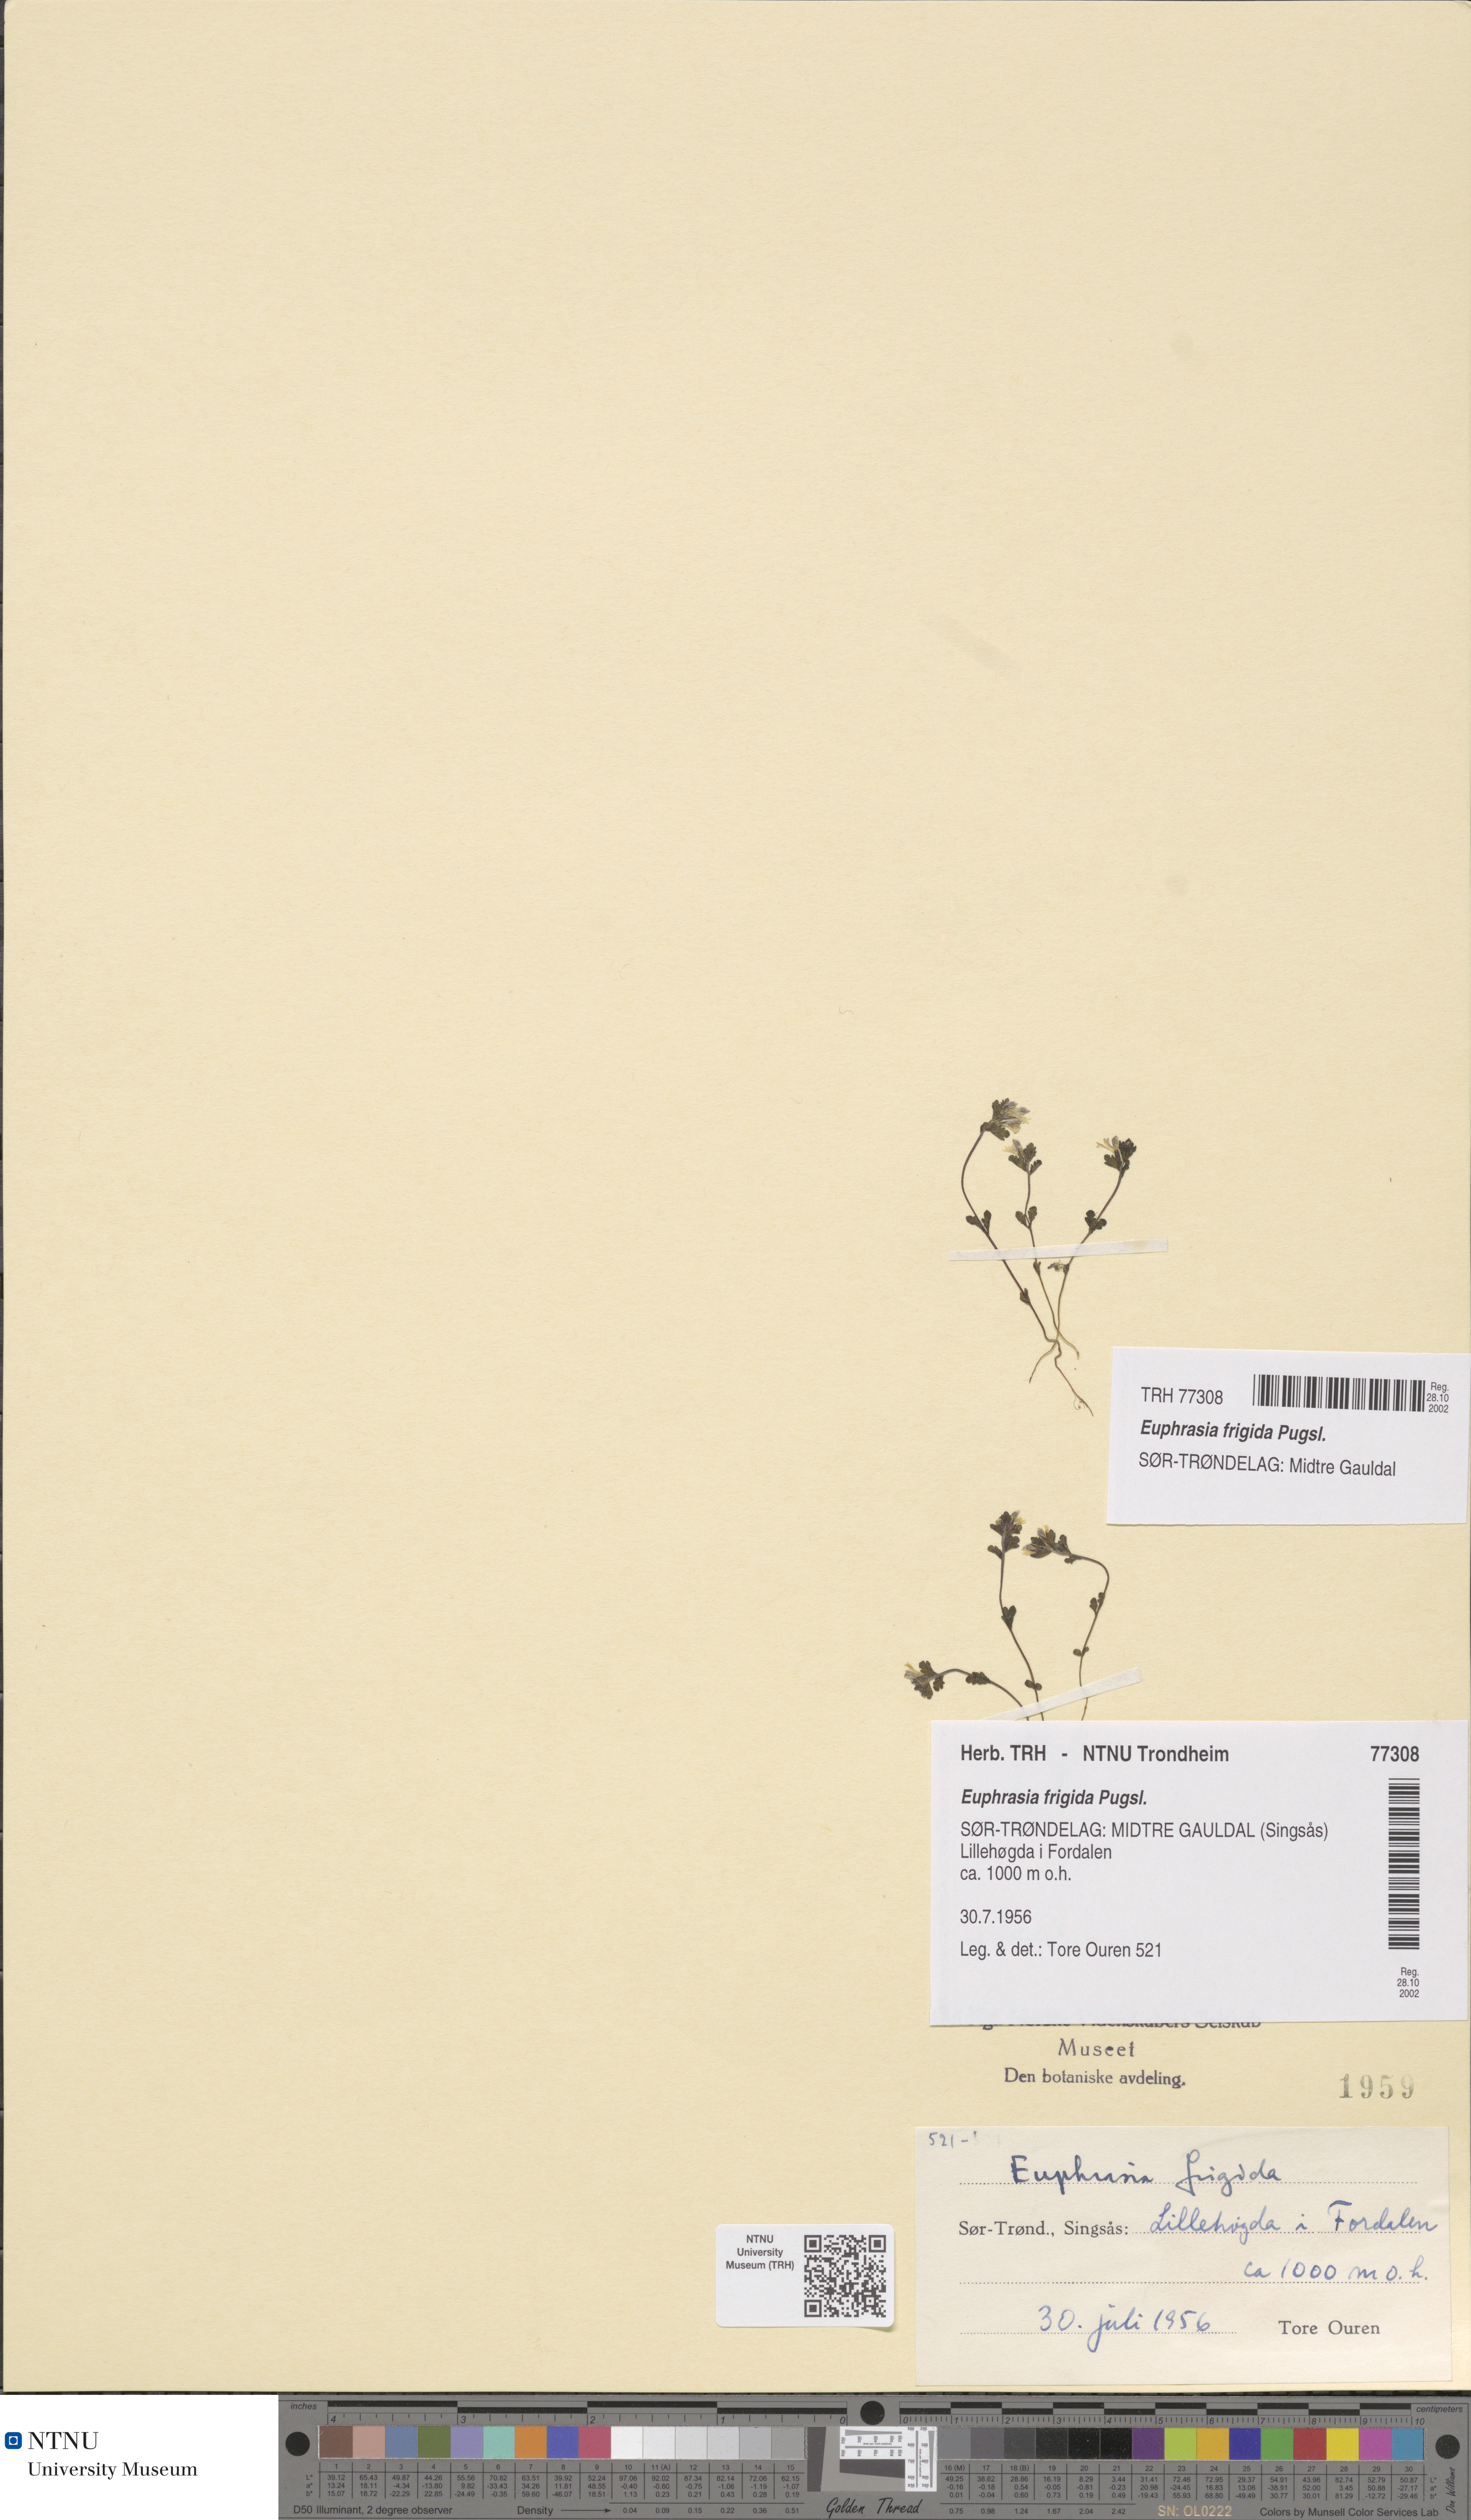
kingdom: Plantae
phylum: Tracheophyta
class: Magnoliopsida
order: Lamiales
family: Orobanchaceae
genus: Euphrasia
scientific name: Euphrasia wettsteinii
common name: Wettstein's eyebright
